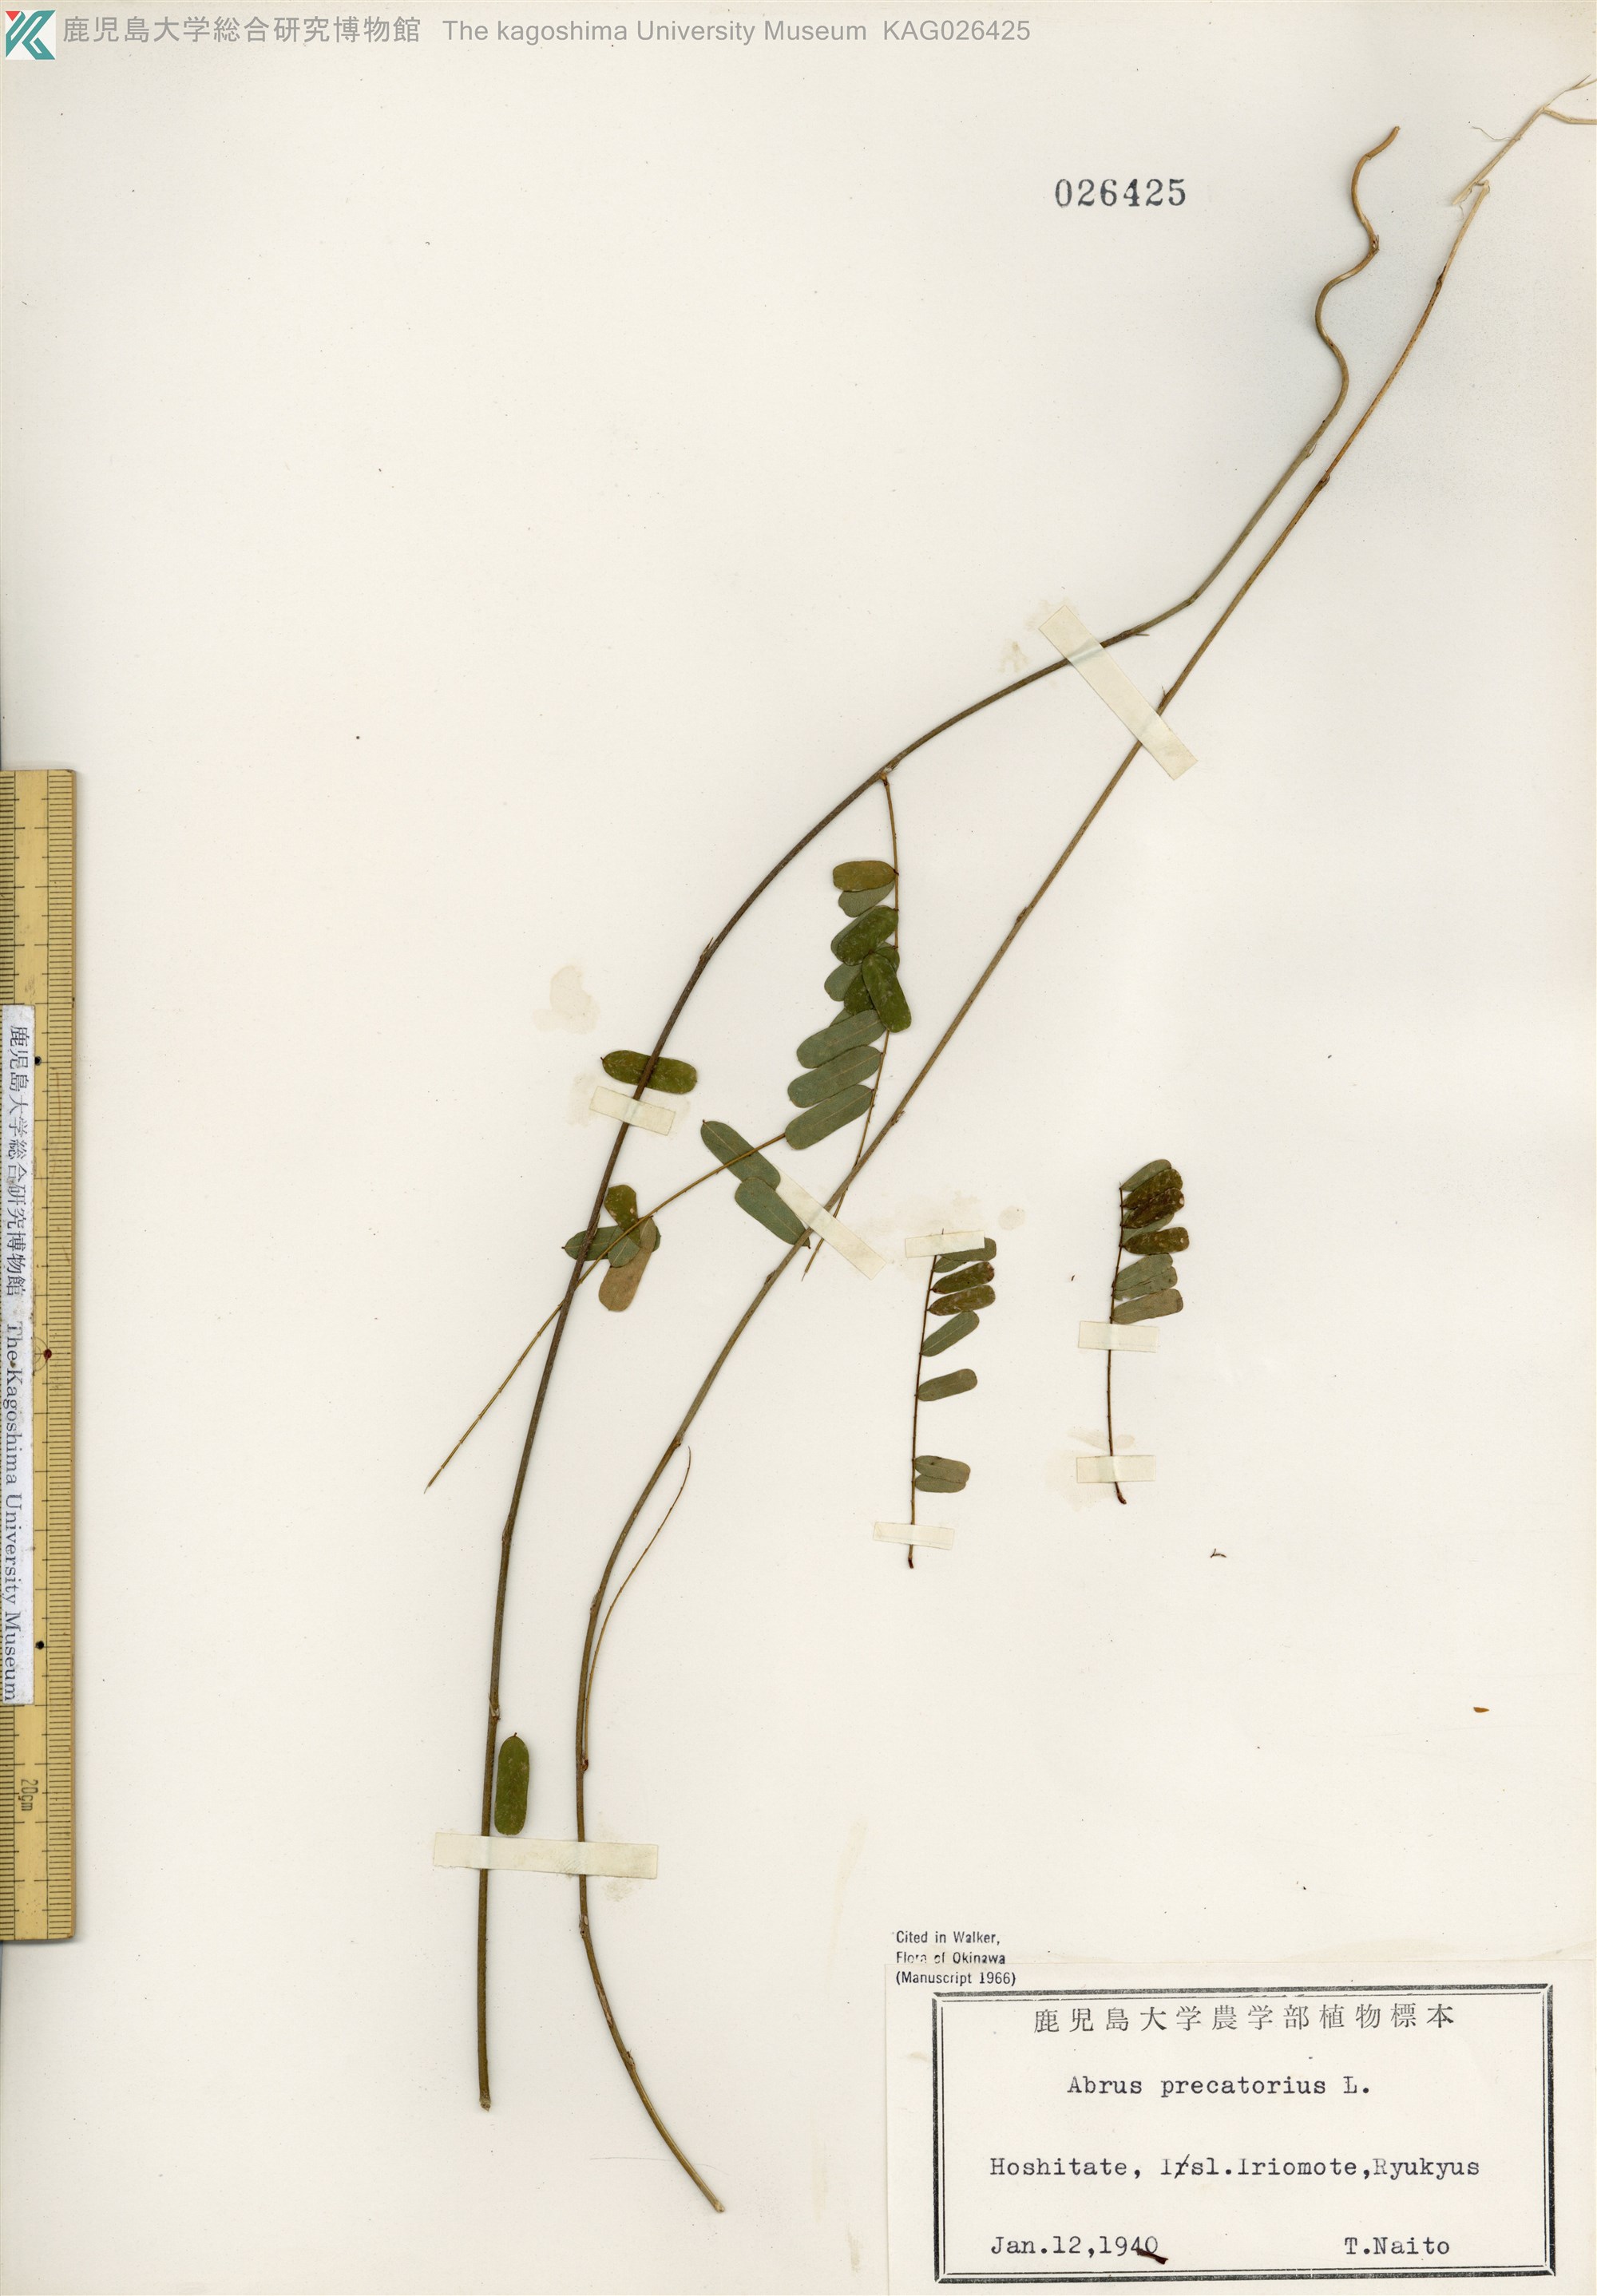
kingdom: Plantae
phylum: Tracheophyta
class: Magnoliopsida
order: Fabales
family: Fabaceae
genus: Abrus
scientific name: Abrus precatorius
